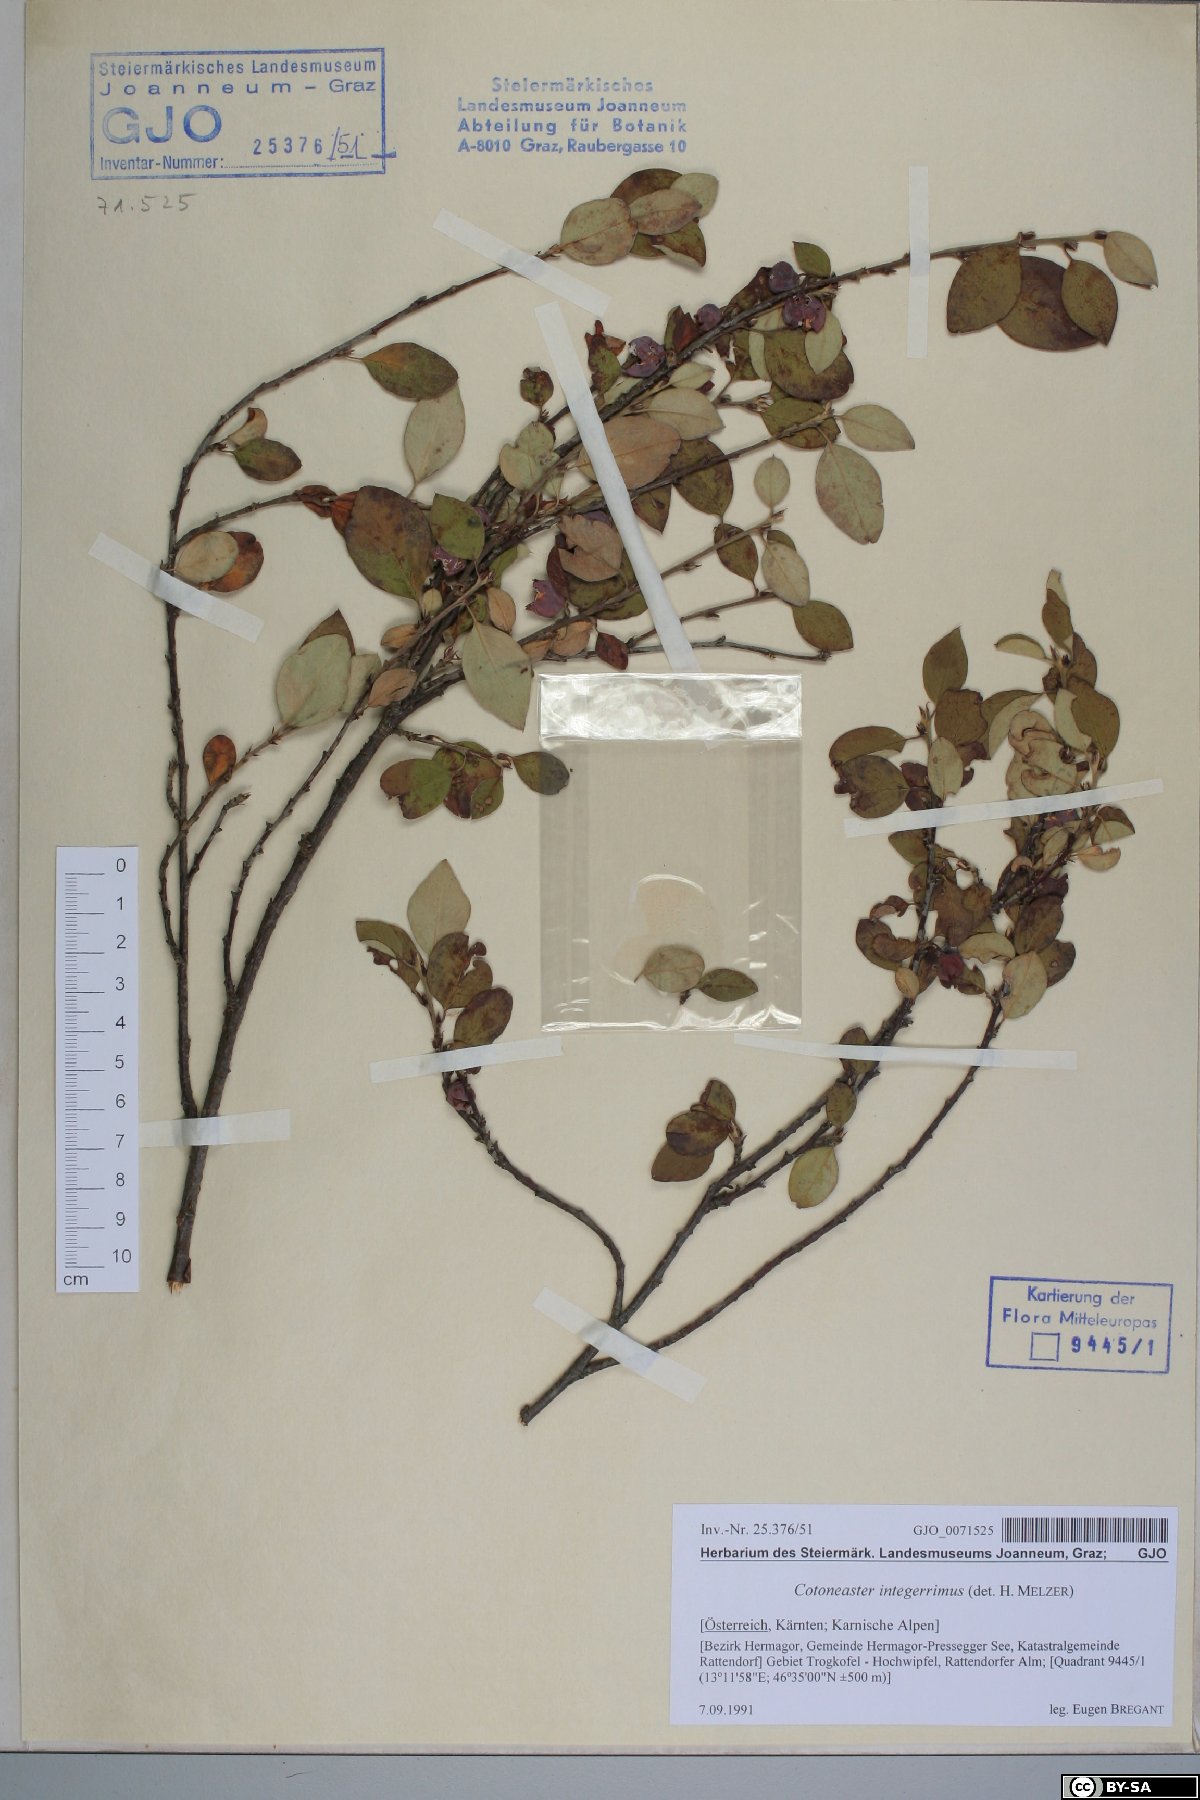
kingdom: Plantae
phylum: Tracheophyta
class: Magnoliopsida
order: Rosales
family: Rosaceae
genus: Cotoneaster
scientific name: Cotoneaster integerrimus
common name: Wild cotoneaster
